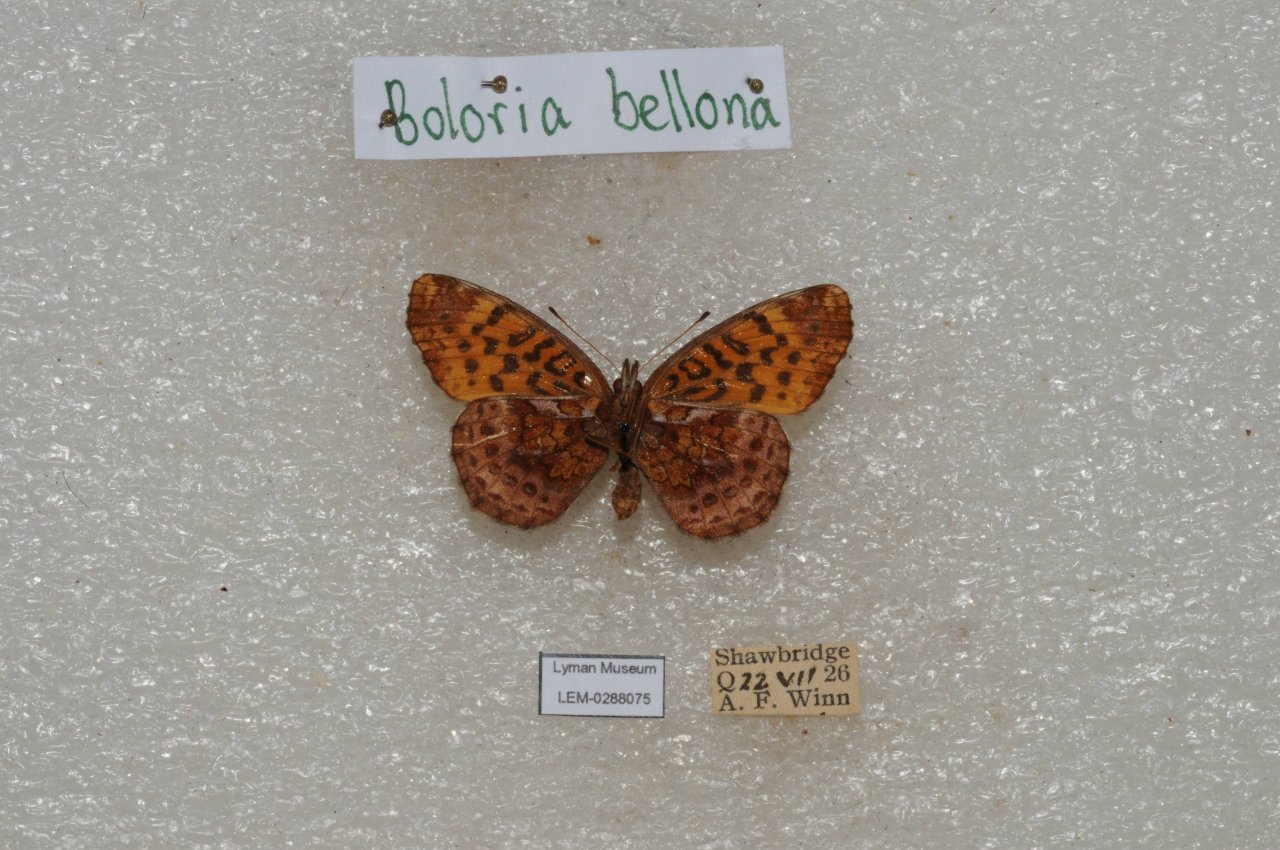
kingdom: Animalia
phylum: Arthropoda
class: Insecta
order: Lepidoptera
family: Nymphalidae
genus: Clossiana
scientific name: Clossiana toddi
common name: Meadow Fritillary
